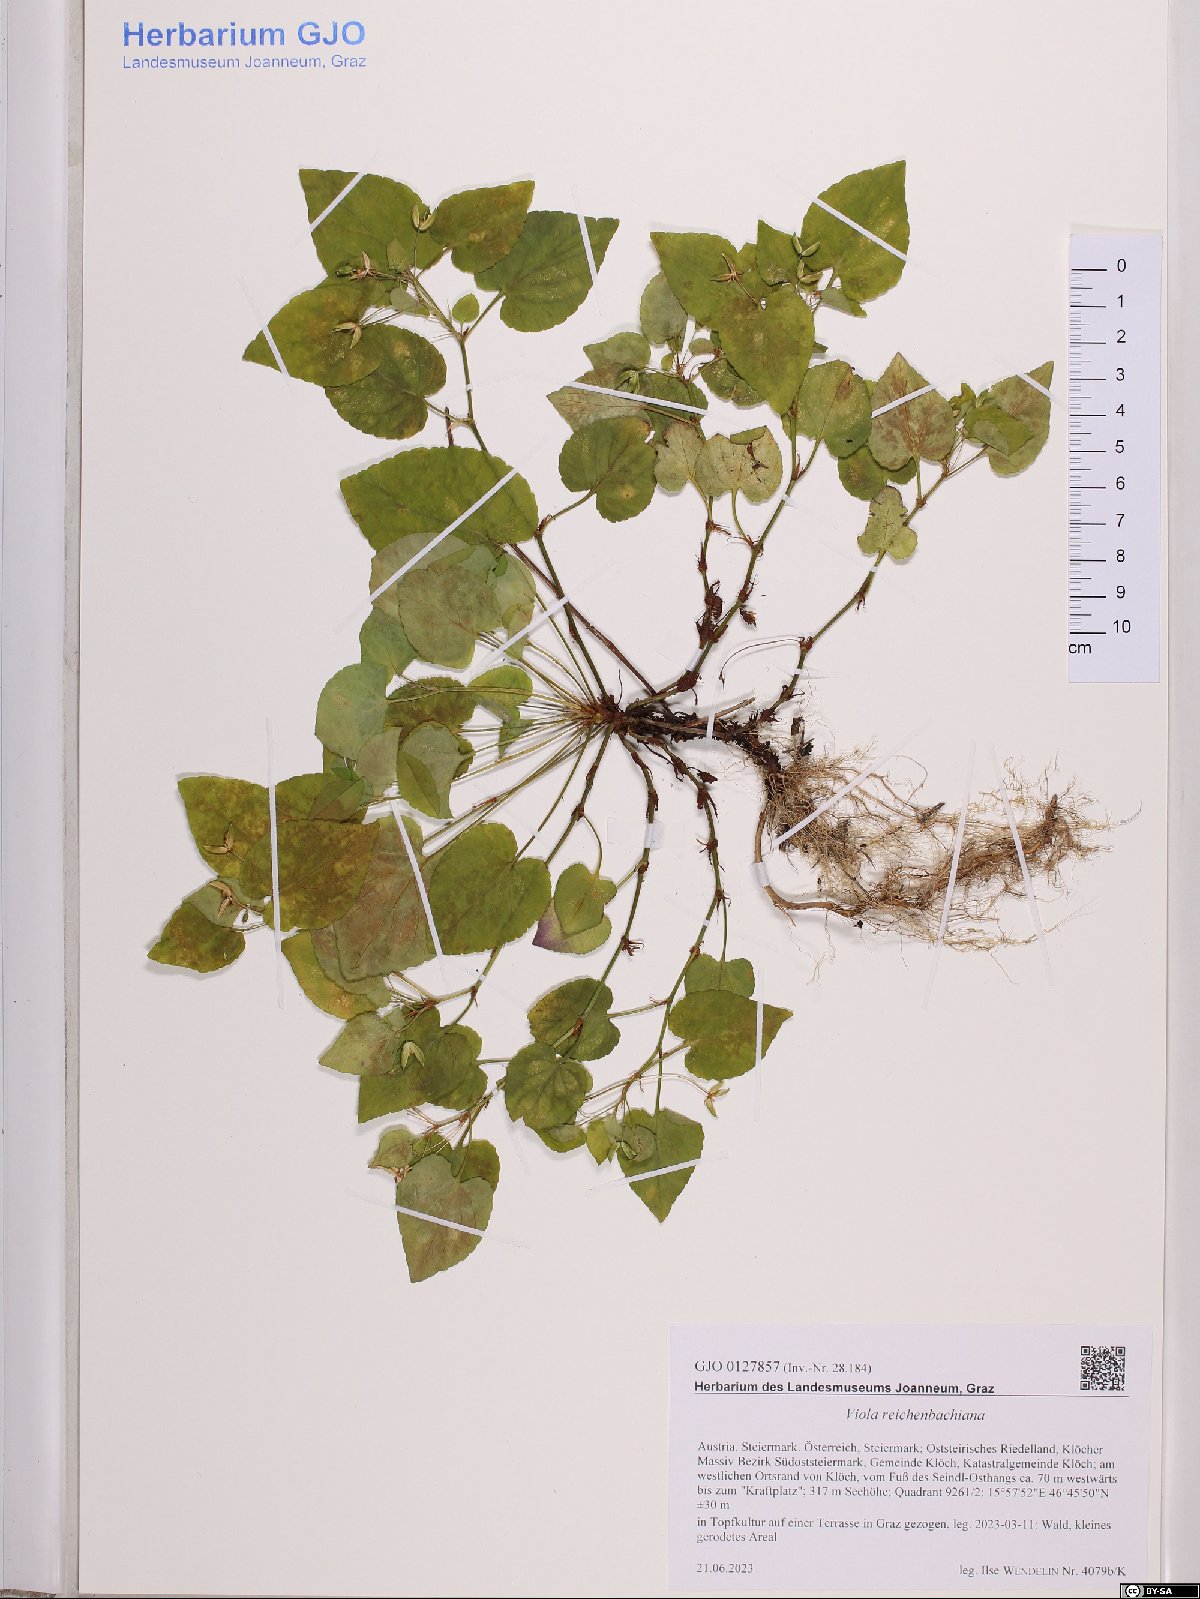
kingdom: Plantae
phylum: Tracheophyta
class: Magnoliopsida
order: Malpighiales
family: Violaceae
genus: Viola
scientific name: Viola reichenbachiana
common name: Early dog-violet
